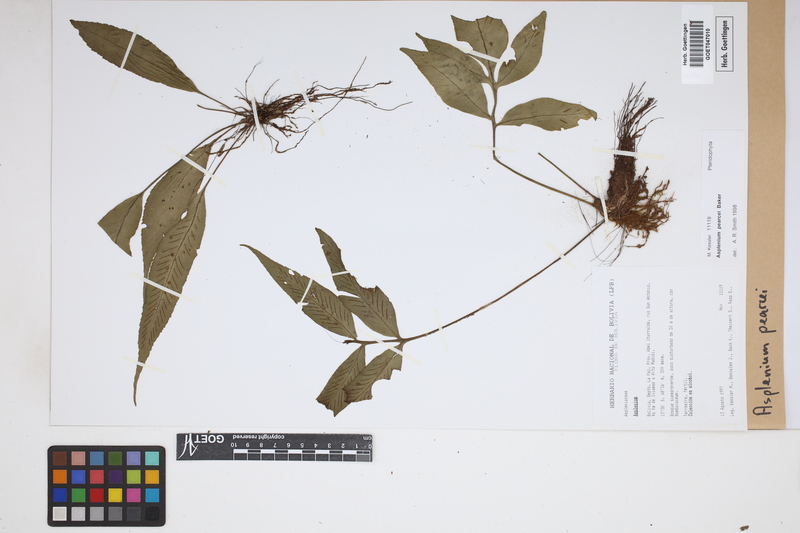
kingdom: Plantae
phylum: Tracheophyta
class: Polypodiopsida
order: Polypodiales
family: Aspleniaceae
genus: Asplenium
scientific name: Asplenium pearcei
